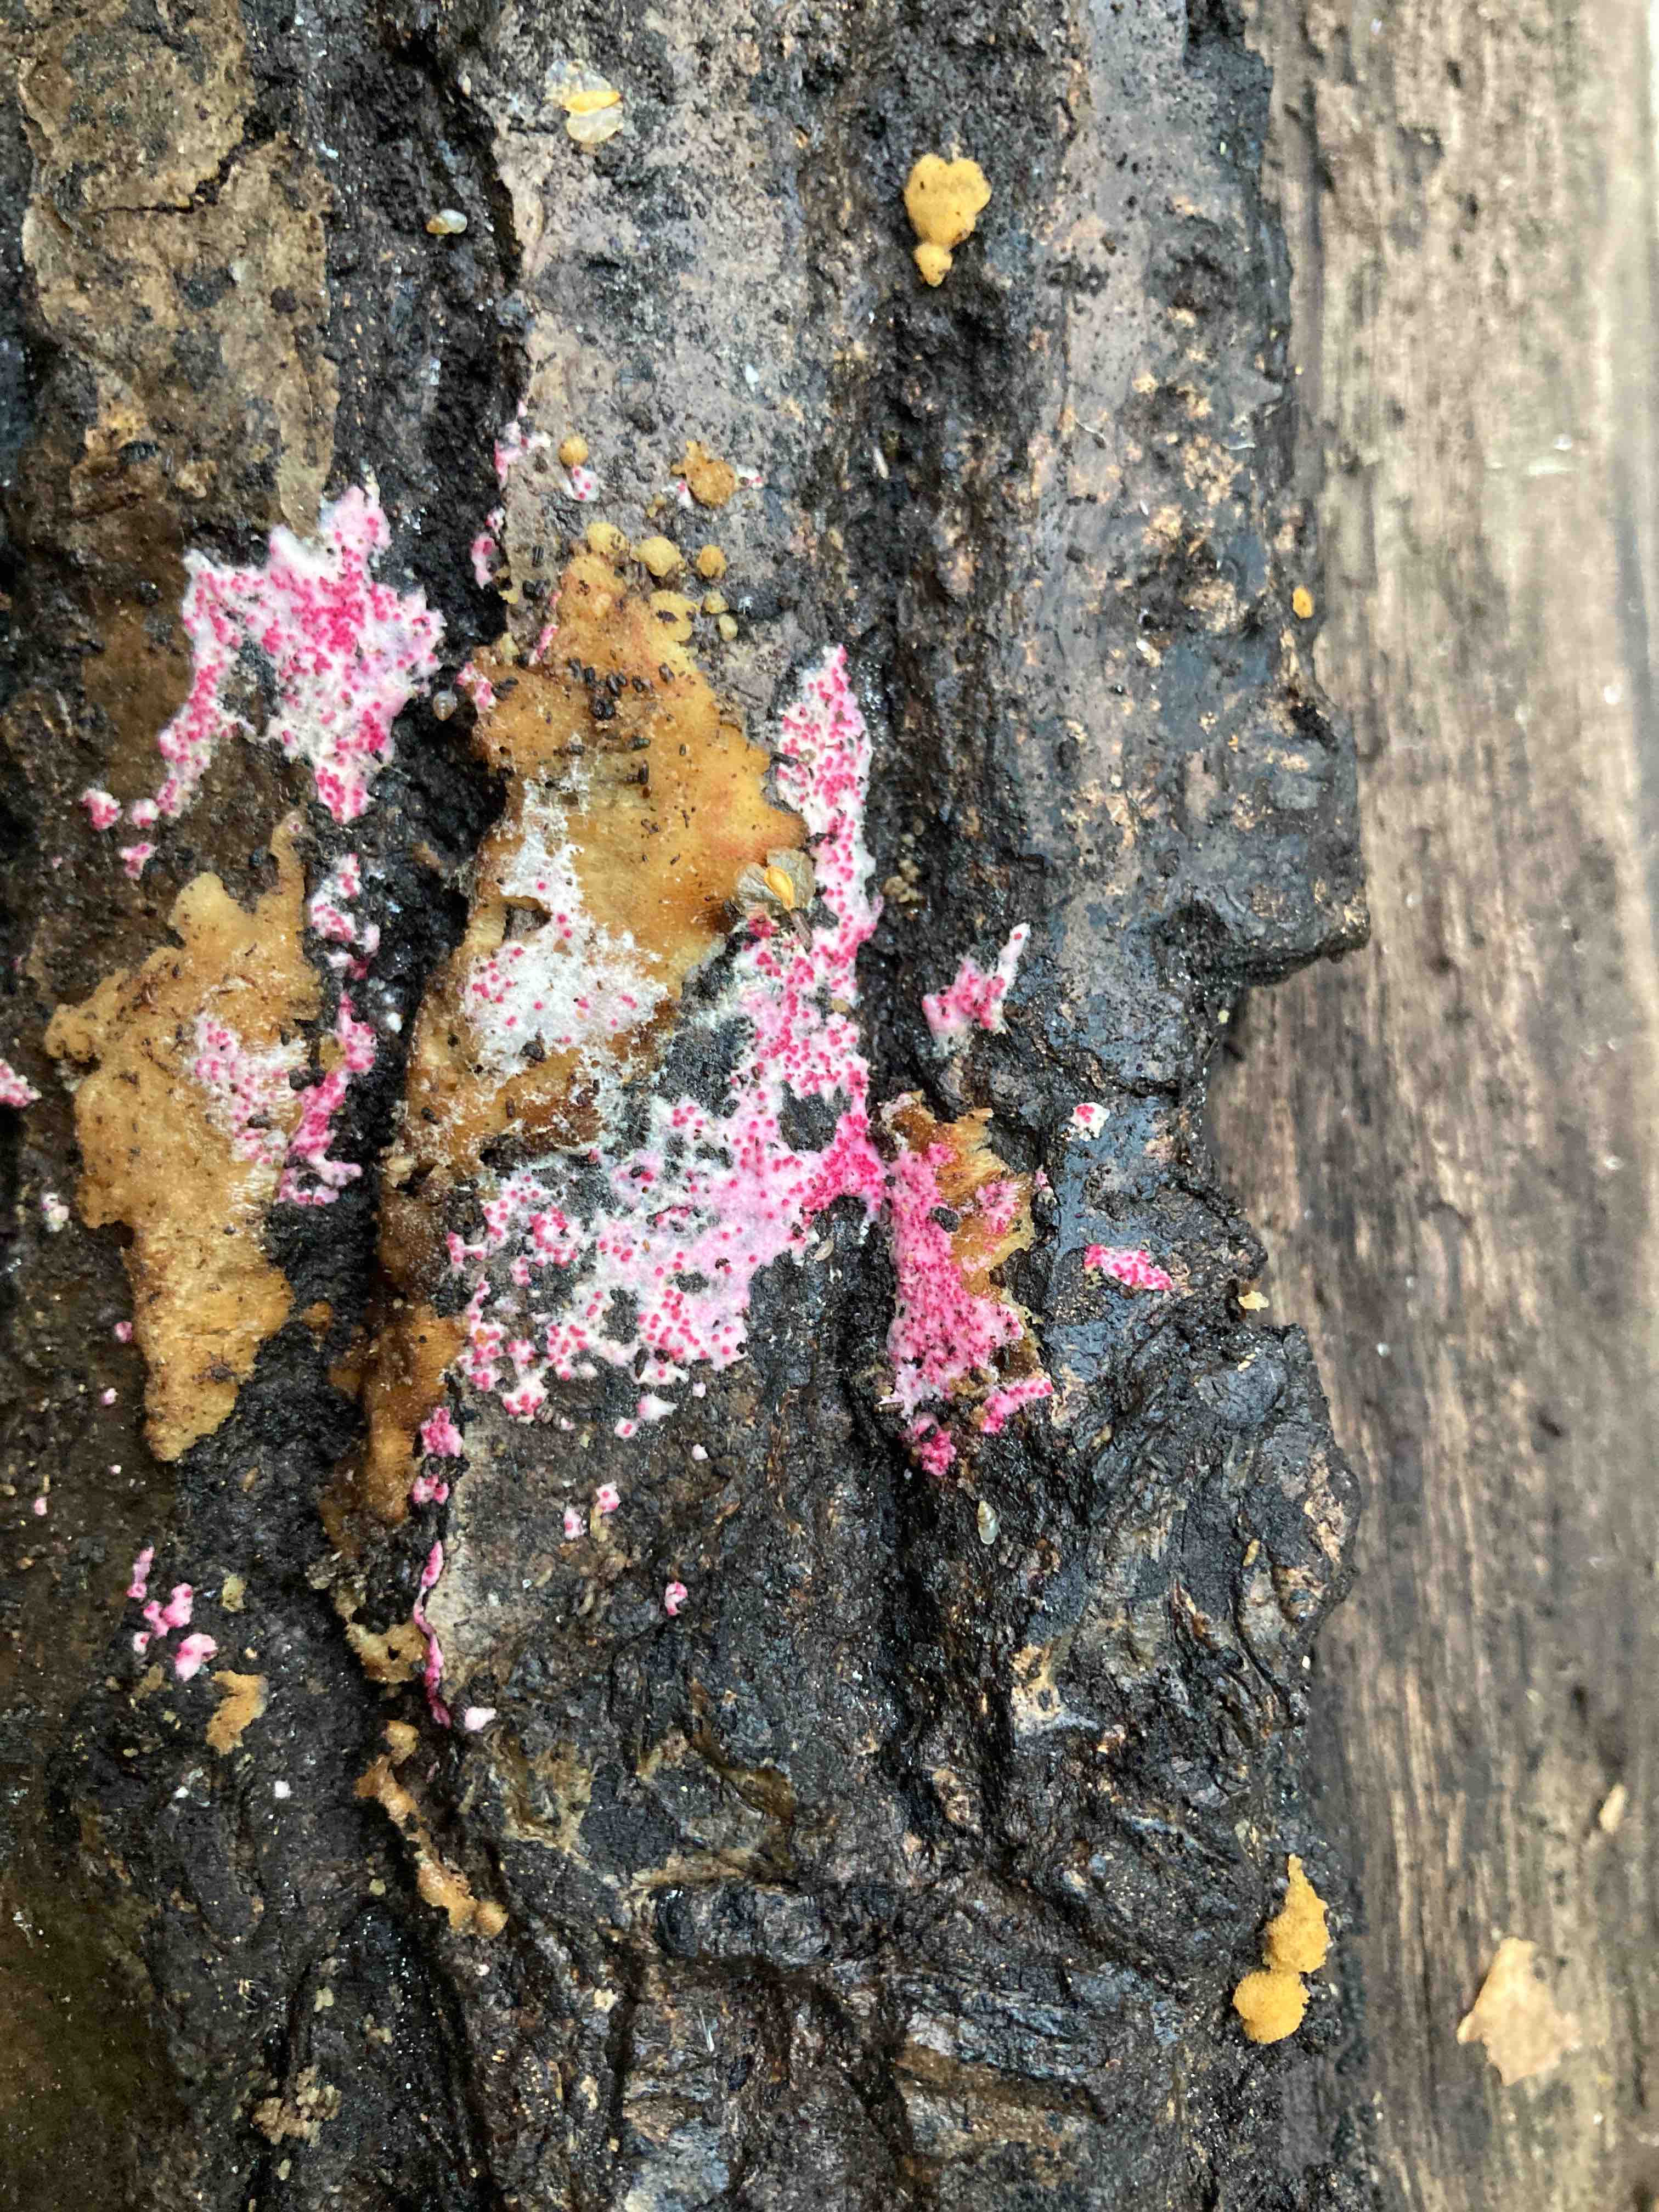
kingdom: Fungi
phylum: Ascomycota
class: Sordariomycetes
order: Hypocreales
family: Hypocreaceae
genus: Hypomyces
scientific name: Hypomyces rosellus
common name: rosa snylteskorpe
